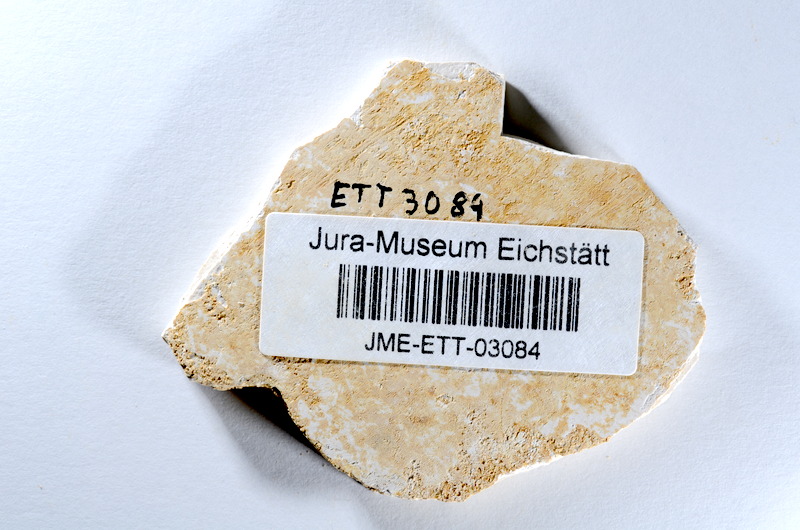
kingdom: Animalia
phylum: Chordata
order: Salmoniformes
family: Orthogonikleithridae
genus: Orthogonikleithrus
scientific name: Orthogonikleithrus hoelli
